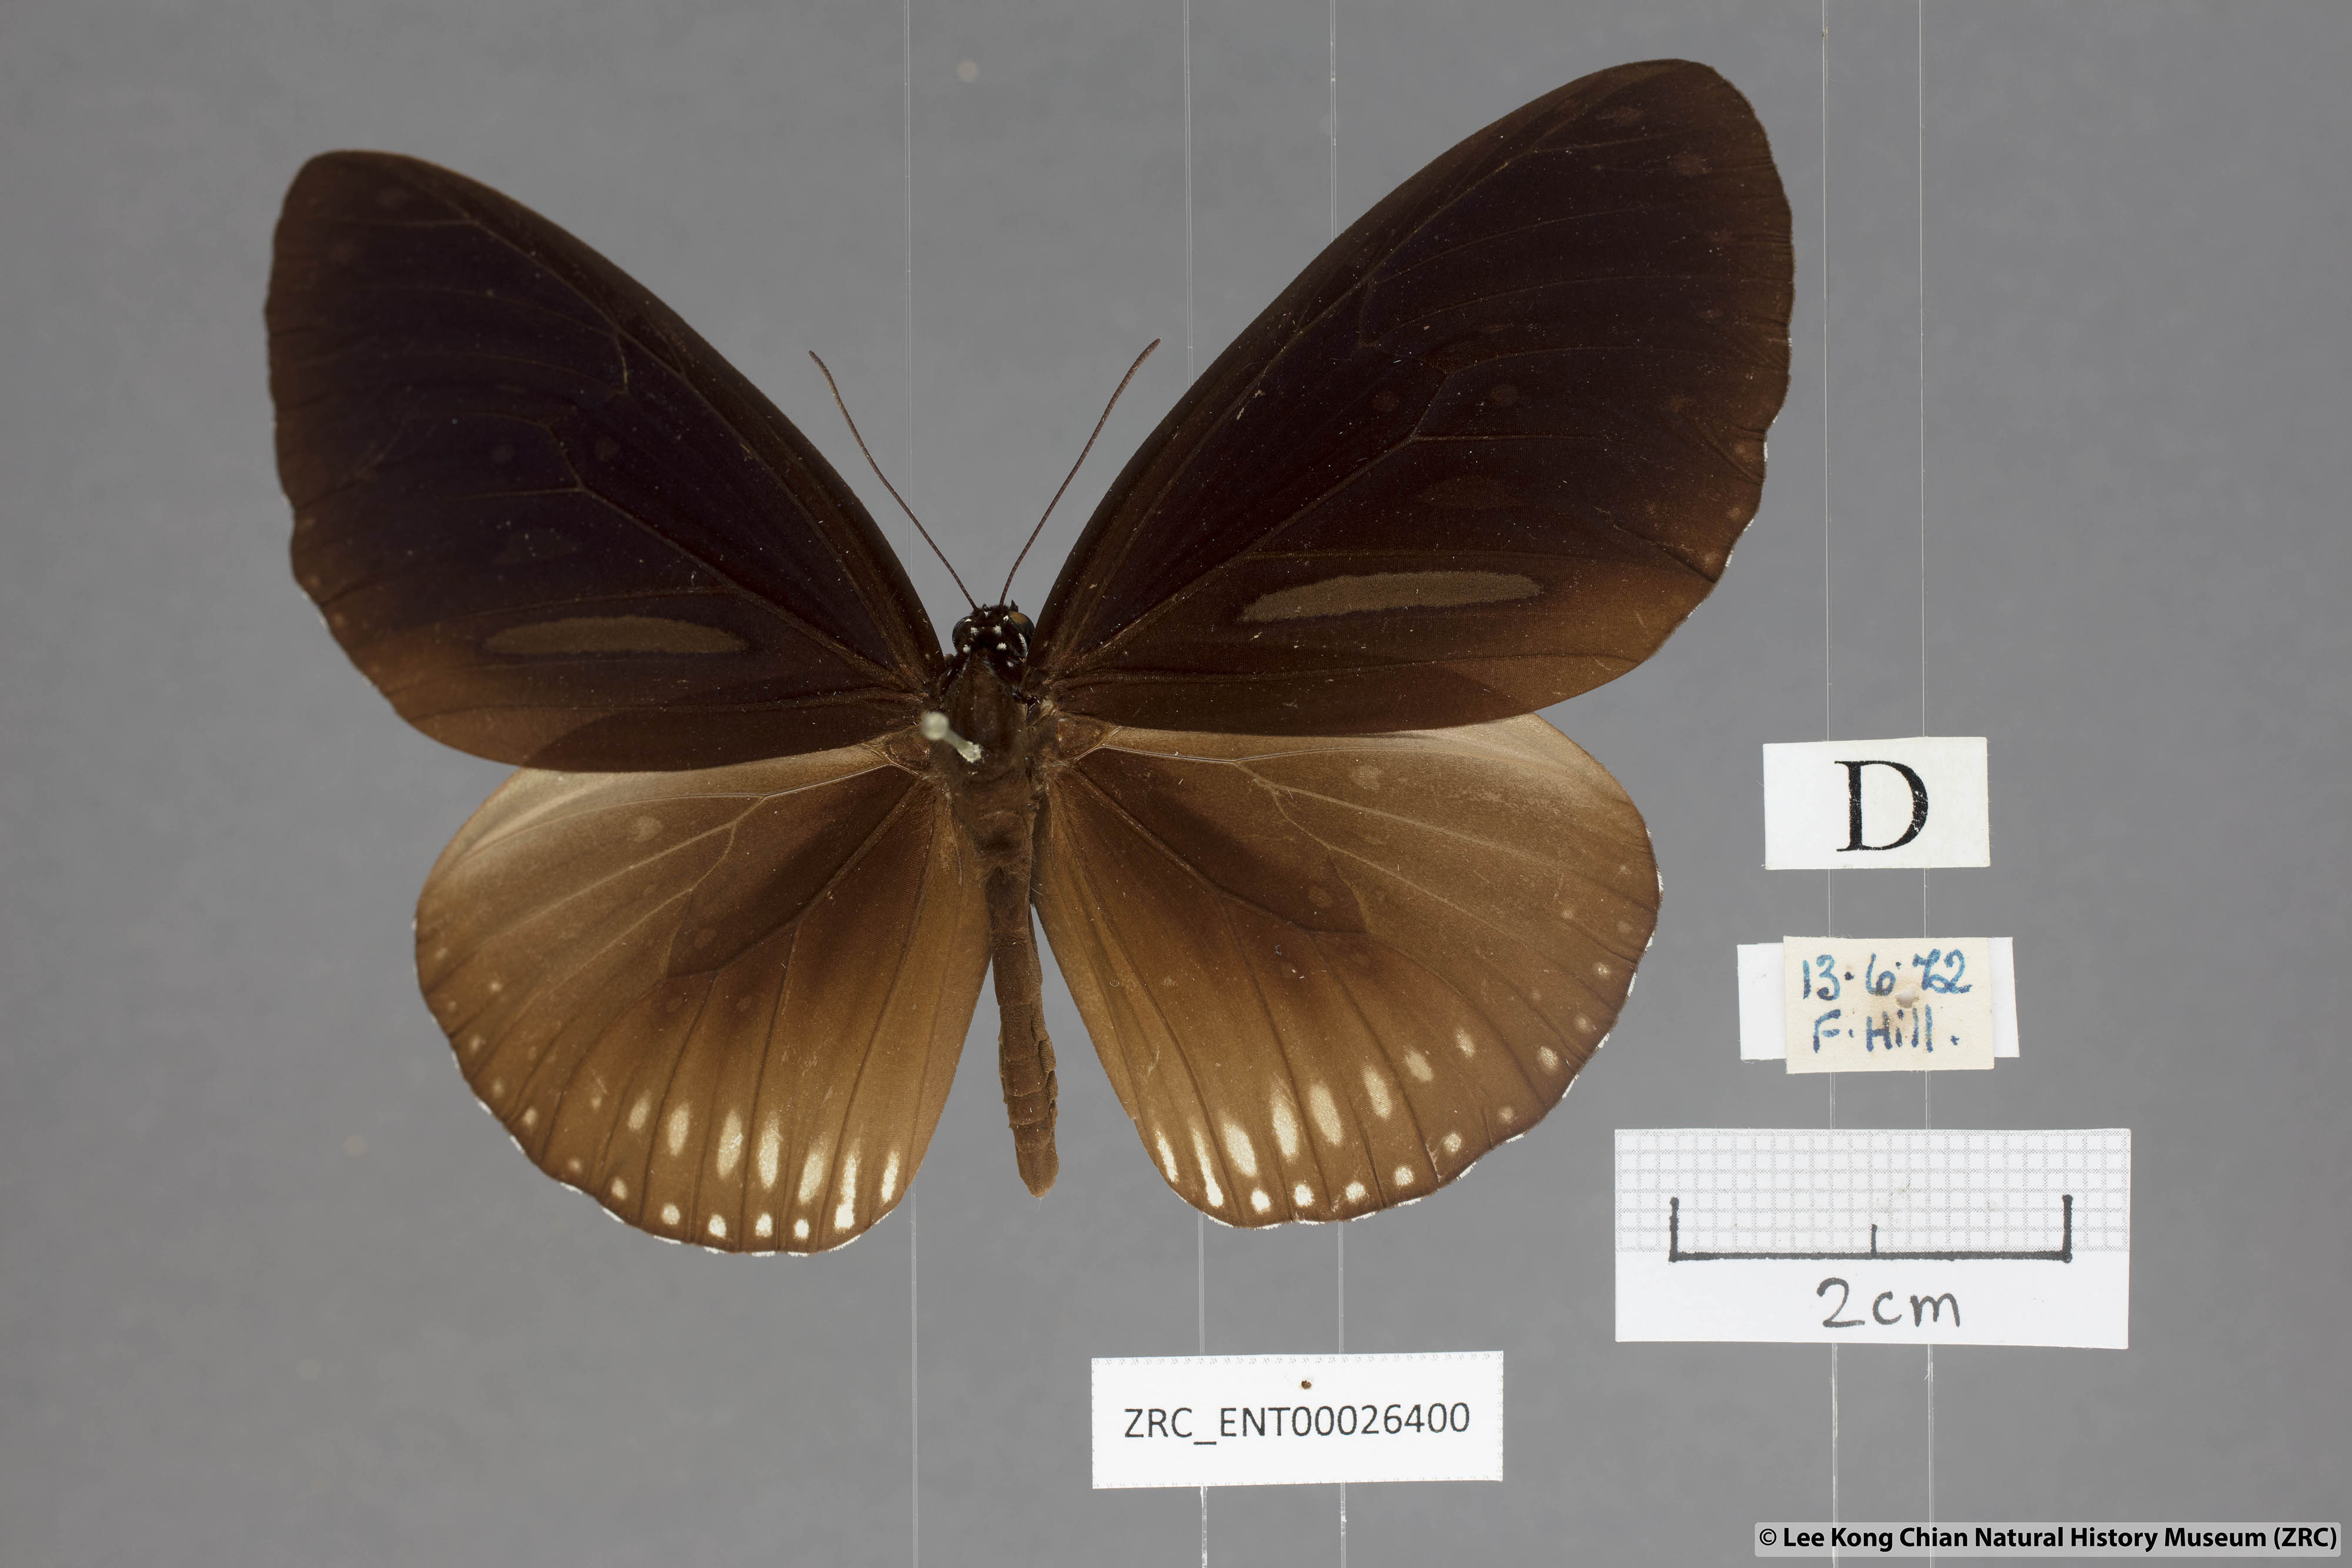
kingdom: Animalia
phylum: Arthropoda
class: Insecta
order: Lepidoptera
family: Nymphalidae
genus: Euploea
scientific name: Euploea algea
